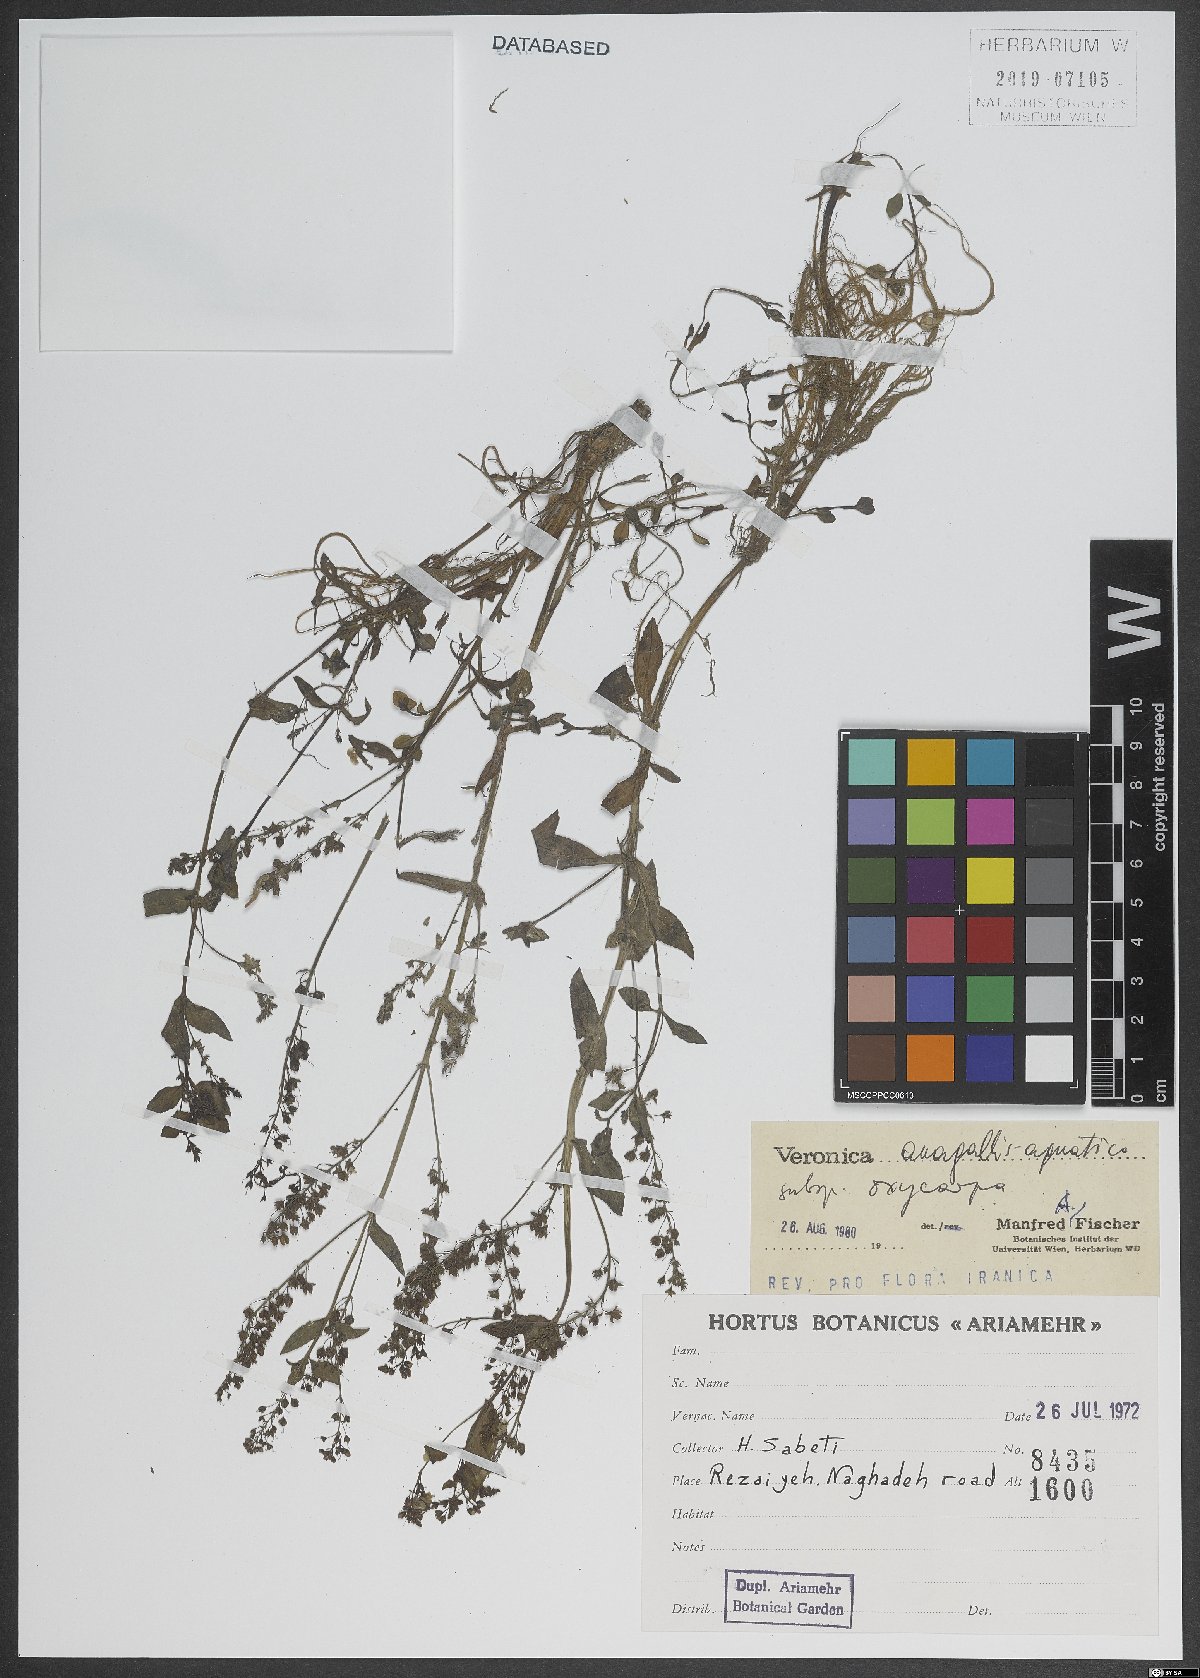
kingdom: Plantae
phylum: Tracheophyta
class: Magnoliopsida
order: Lamiales
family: Plantaginaceae
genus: Veronica
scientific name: Veronica oxycarpa
